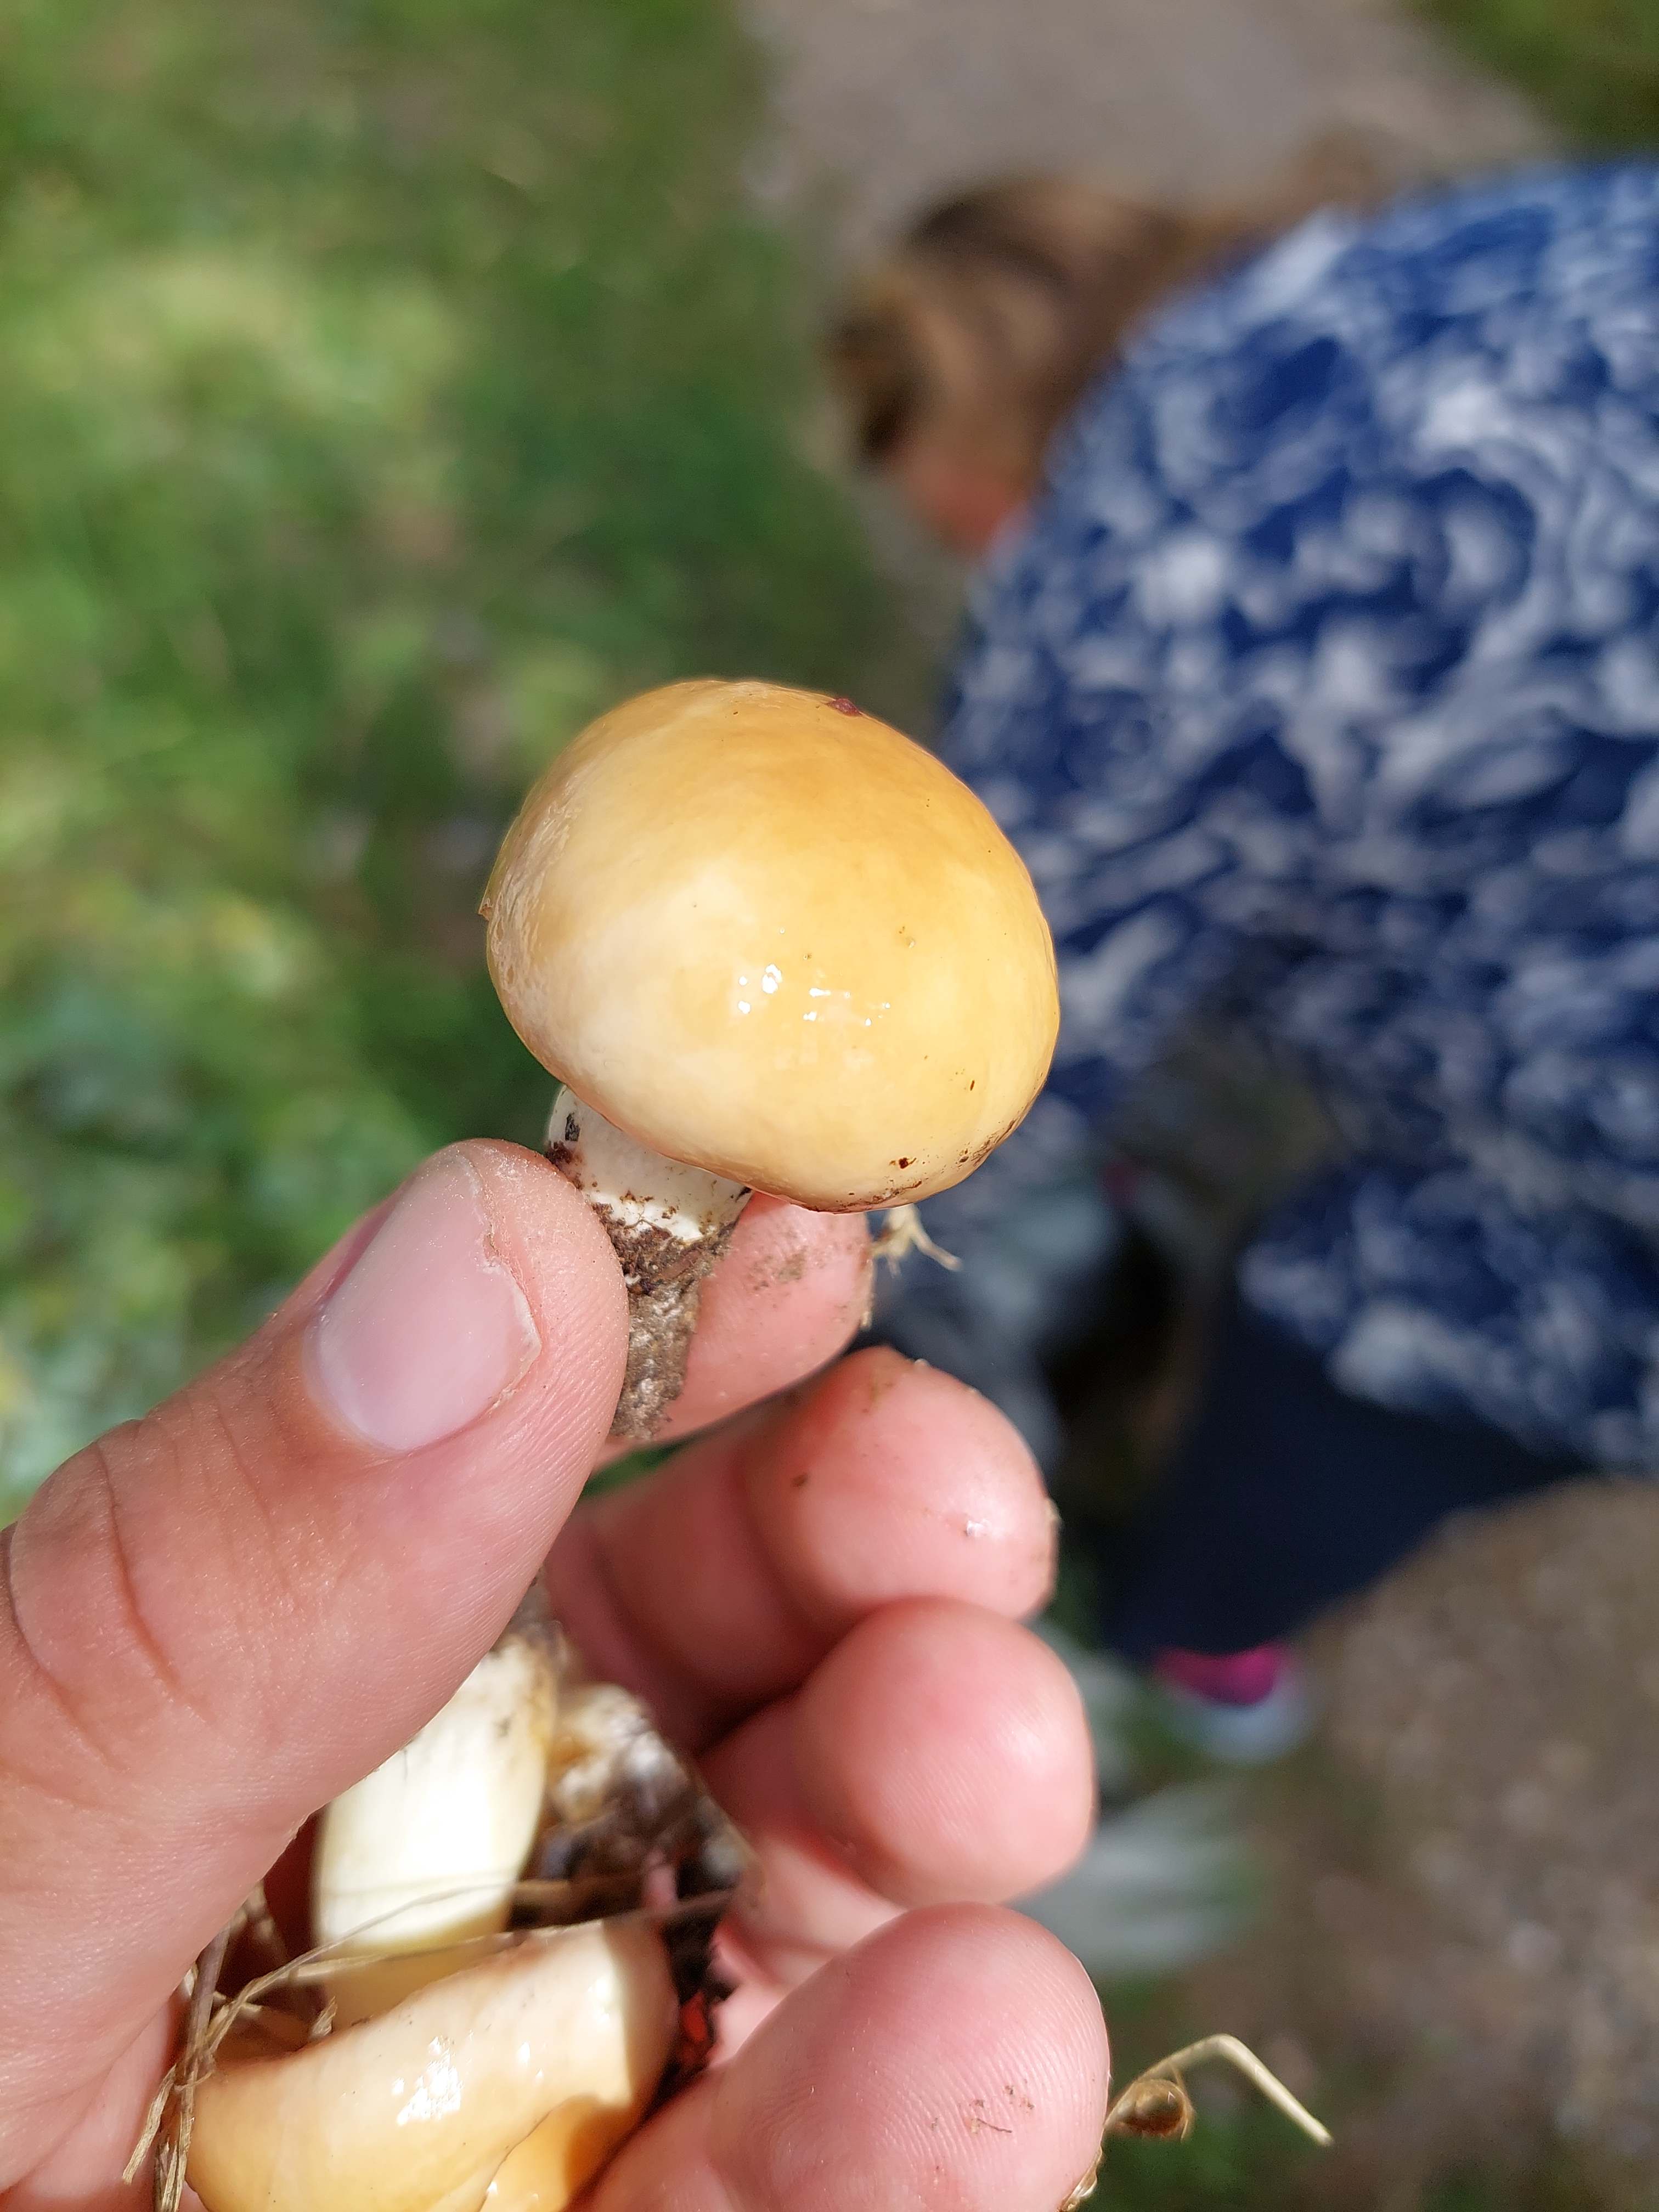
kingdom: Fungi
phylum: Basidiomycota
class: Agaricomycetes
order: Boletales
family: Suillaceae
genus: Suillus
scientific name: Suillus granulatus
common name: kornet slimrørhat
